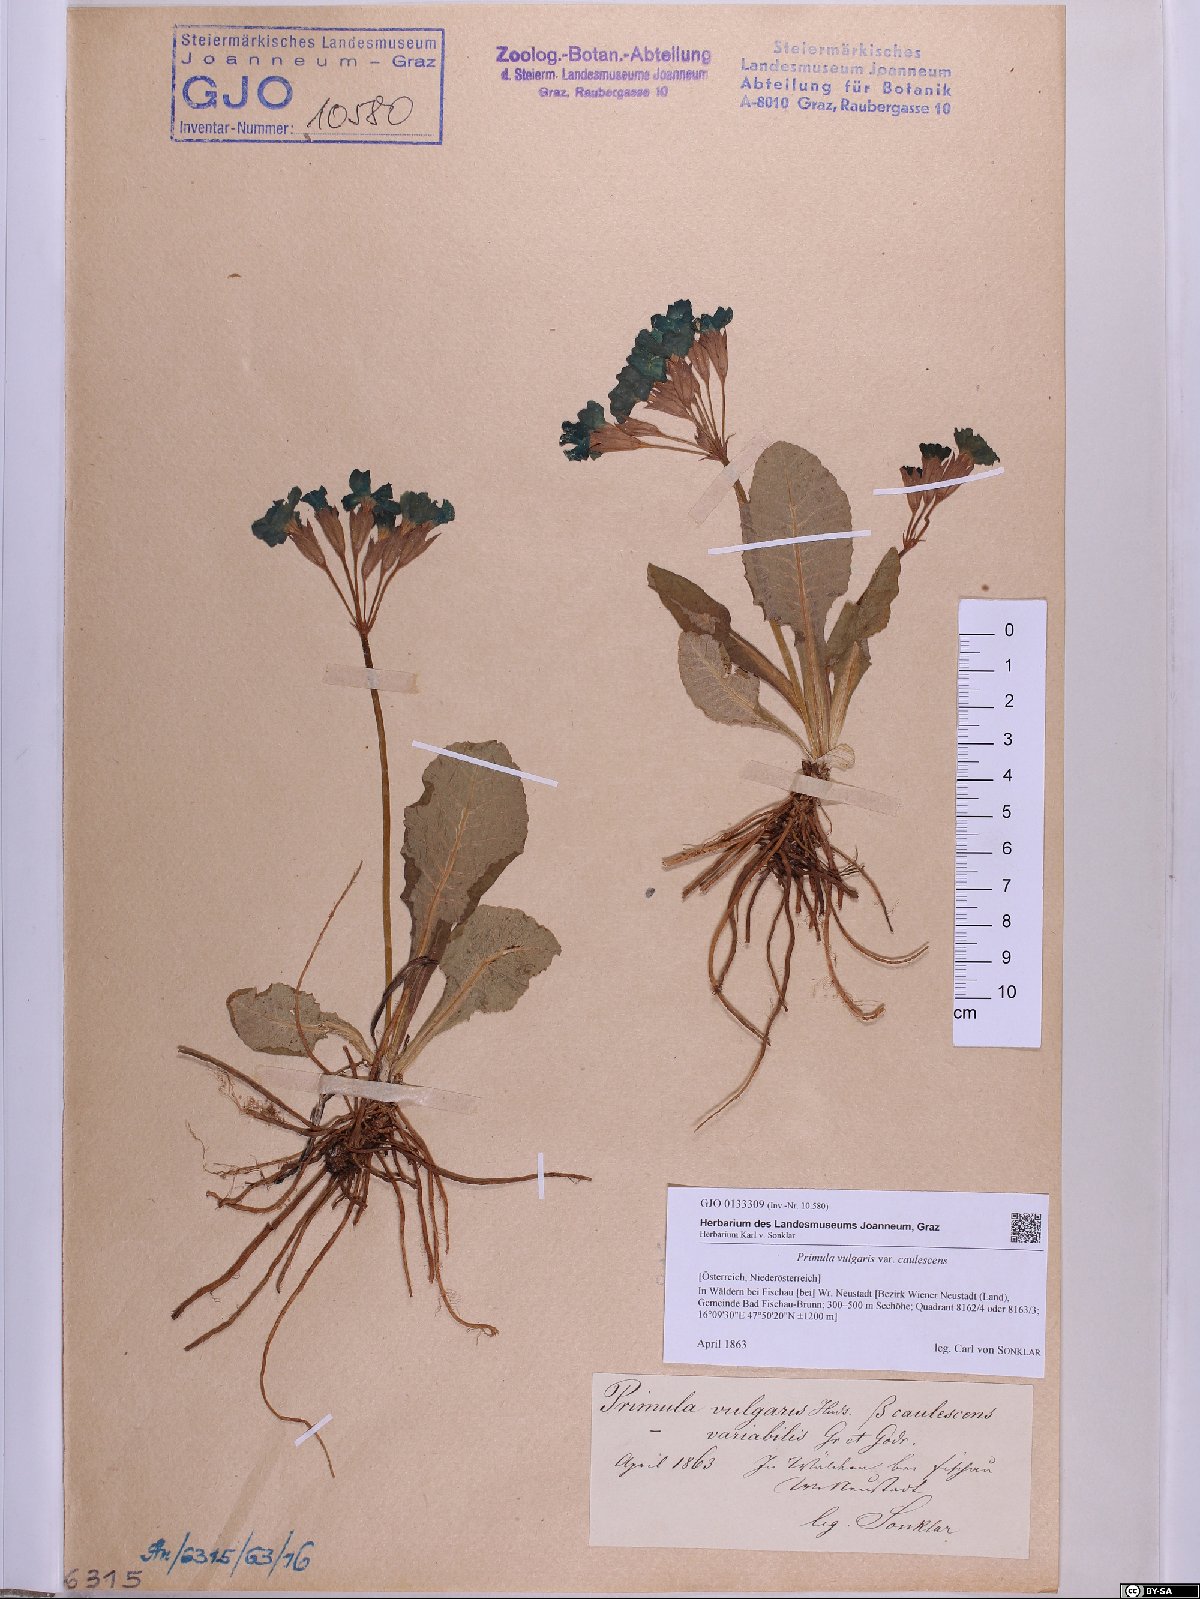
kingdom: Plantae
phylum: Tracheophyta
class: Magnoliopsida
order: Ericales
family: Primulaceae
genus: Primula
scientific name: Primula vulgaris
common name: Primrose
